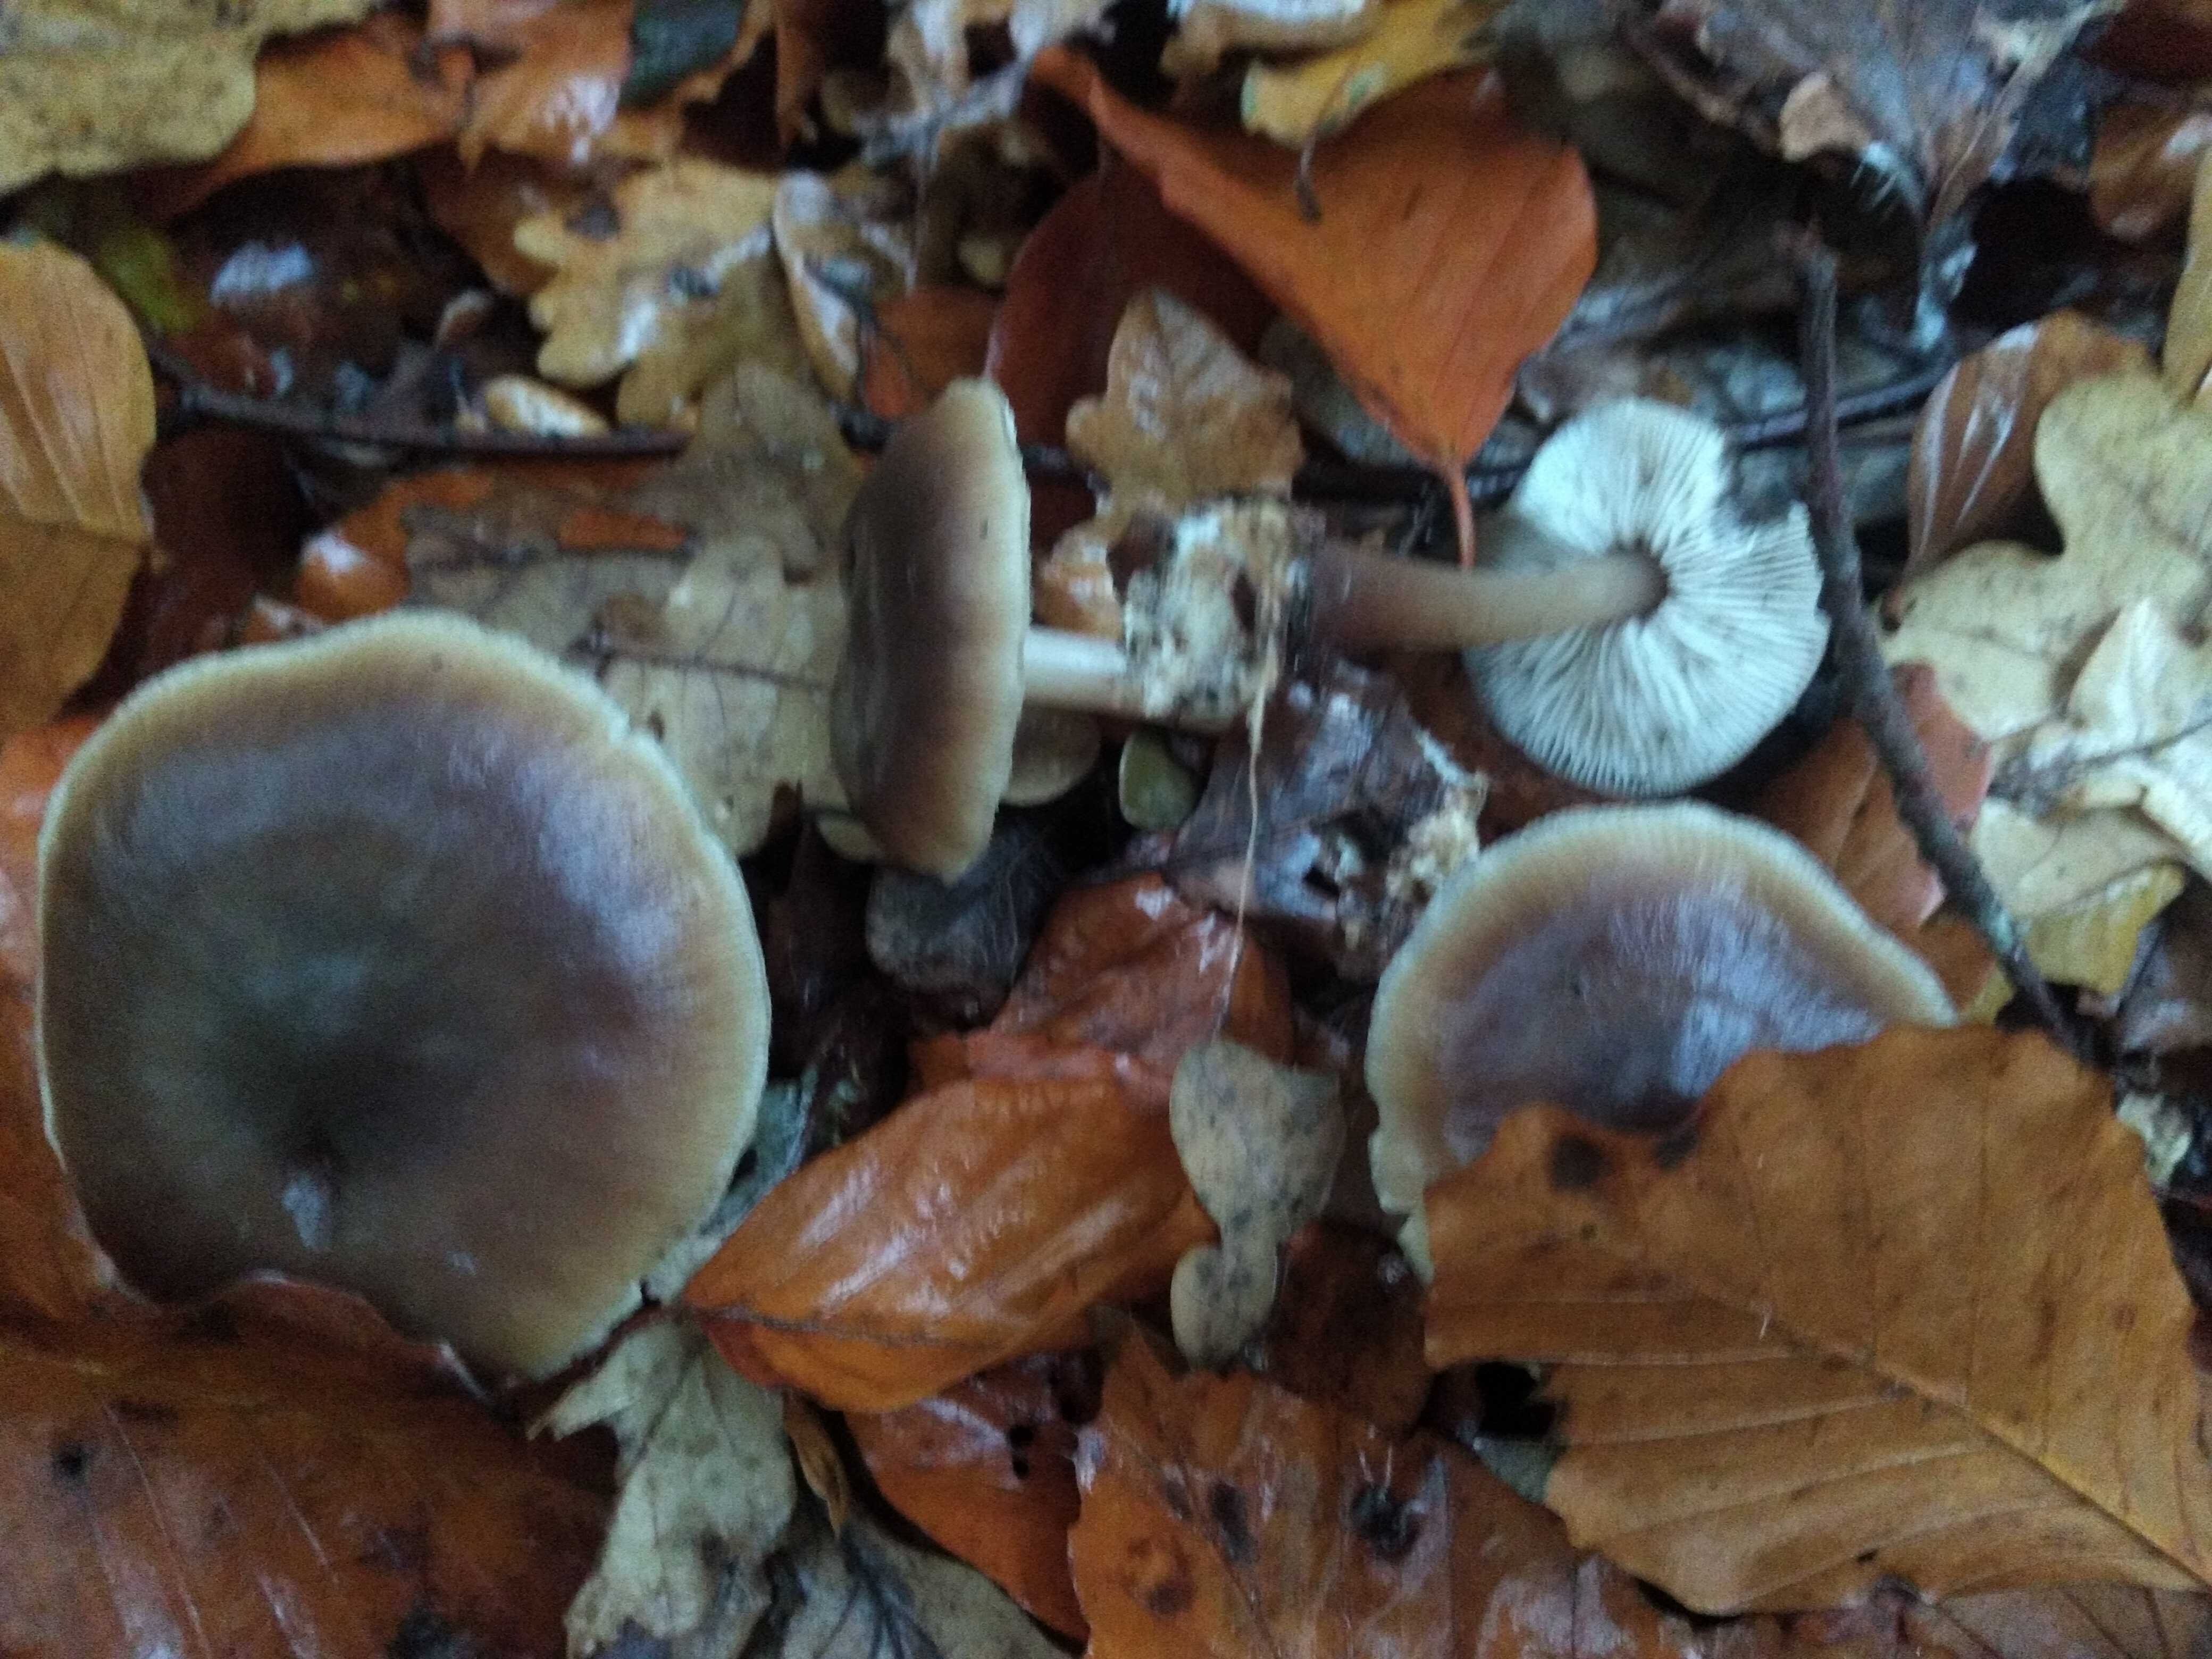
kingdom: Fungi
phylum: Basidiomycota
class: Agaricomycetes
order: Agaricales
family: Omphalotaceae
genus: Rhodocollybia
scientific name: Rhodocollybia asema
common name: horngrå fladhat
